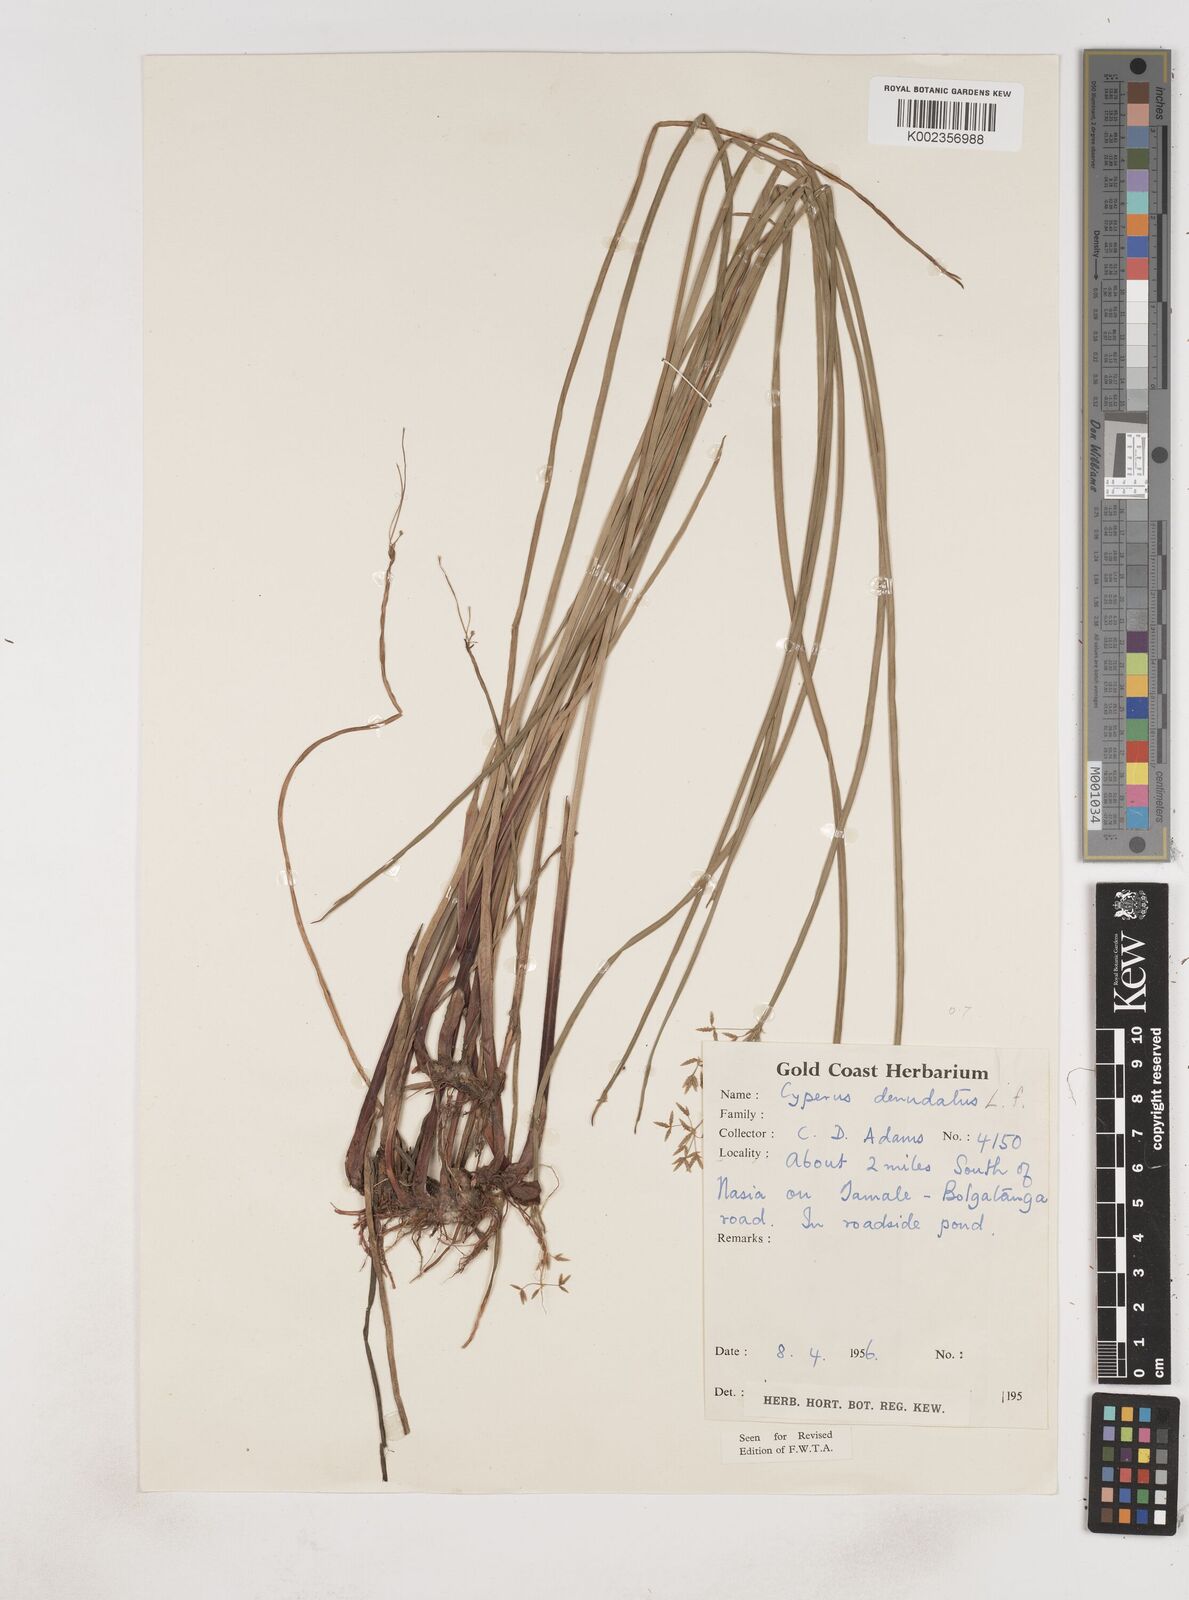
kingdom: Plantae
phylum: Tracheophyta
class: Liliopsida
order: Poales
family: Cyperaceae
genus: Cyperus
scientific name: Cyperus denudatus
